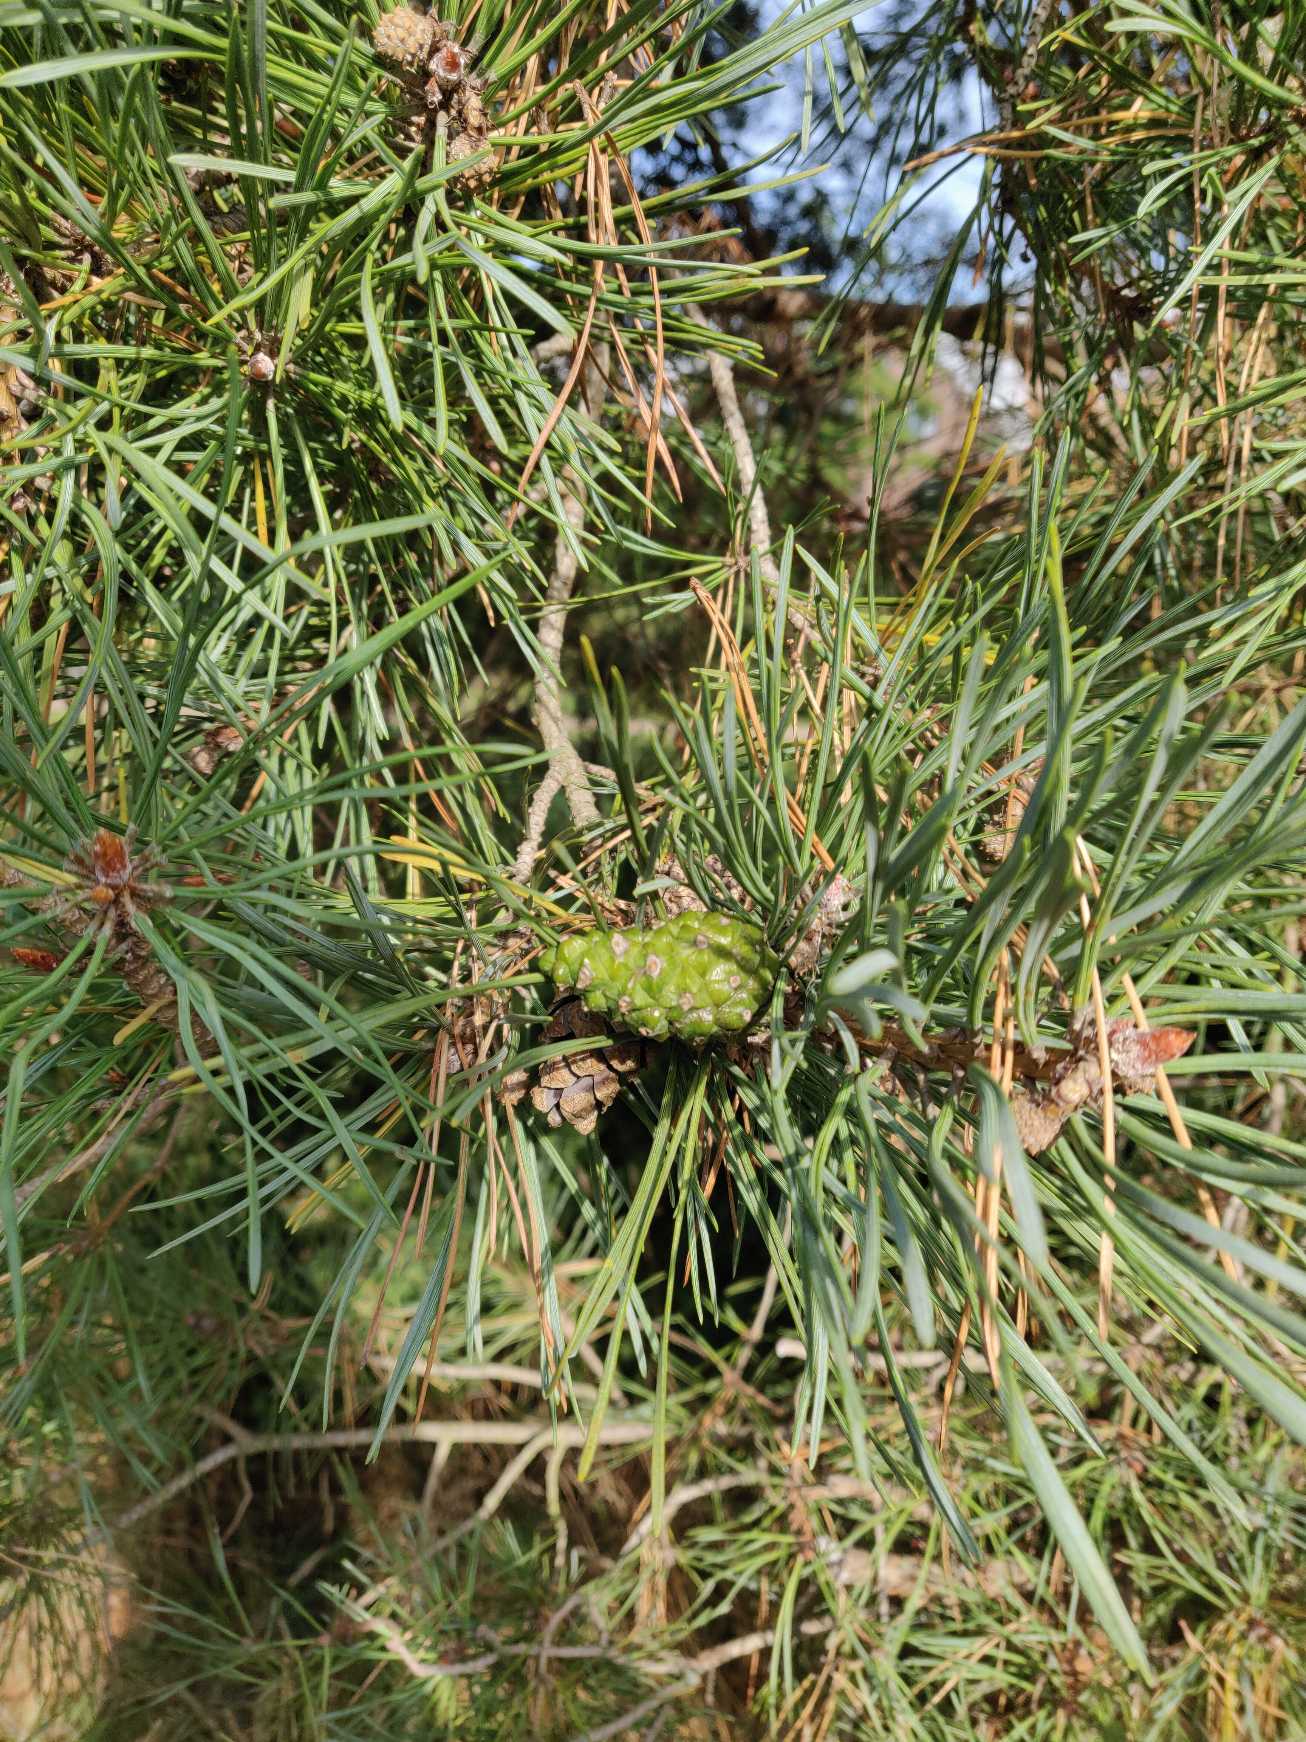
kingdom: Plantae
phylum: Tracheophyta
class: Pinopsida
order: Pinales
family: Pinaceae
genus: Pinus
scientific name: Pinus sylvestris
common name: Skov-fyr
